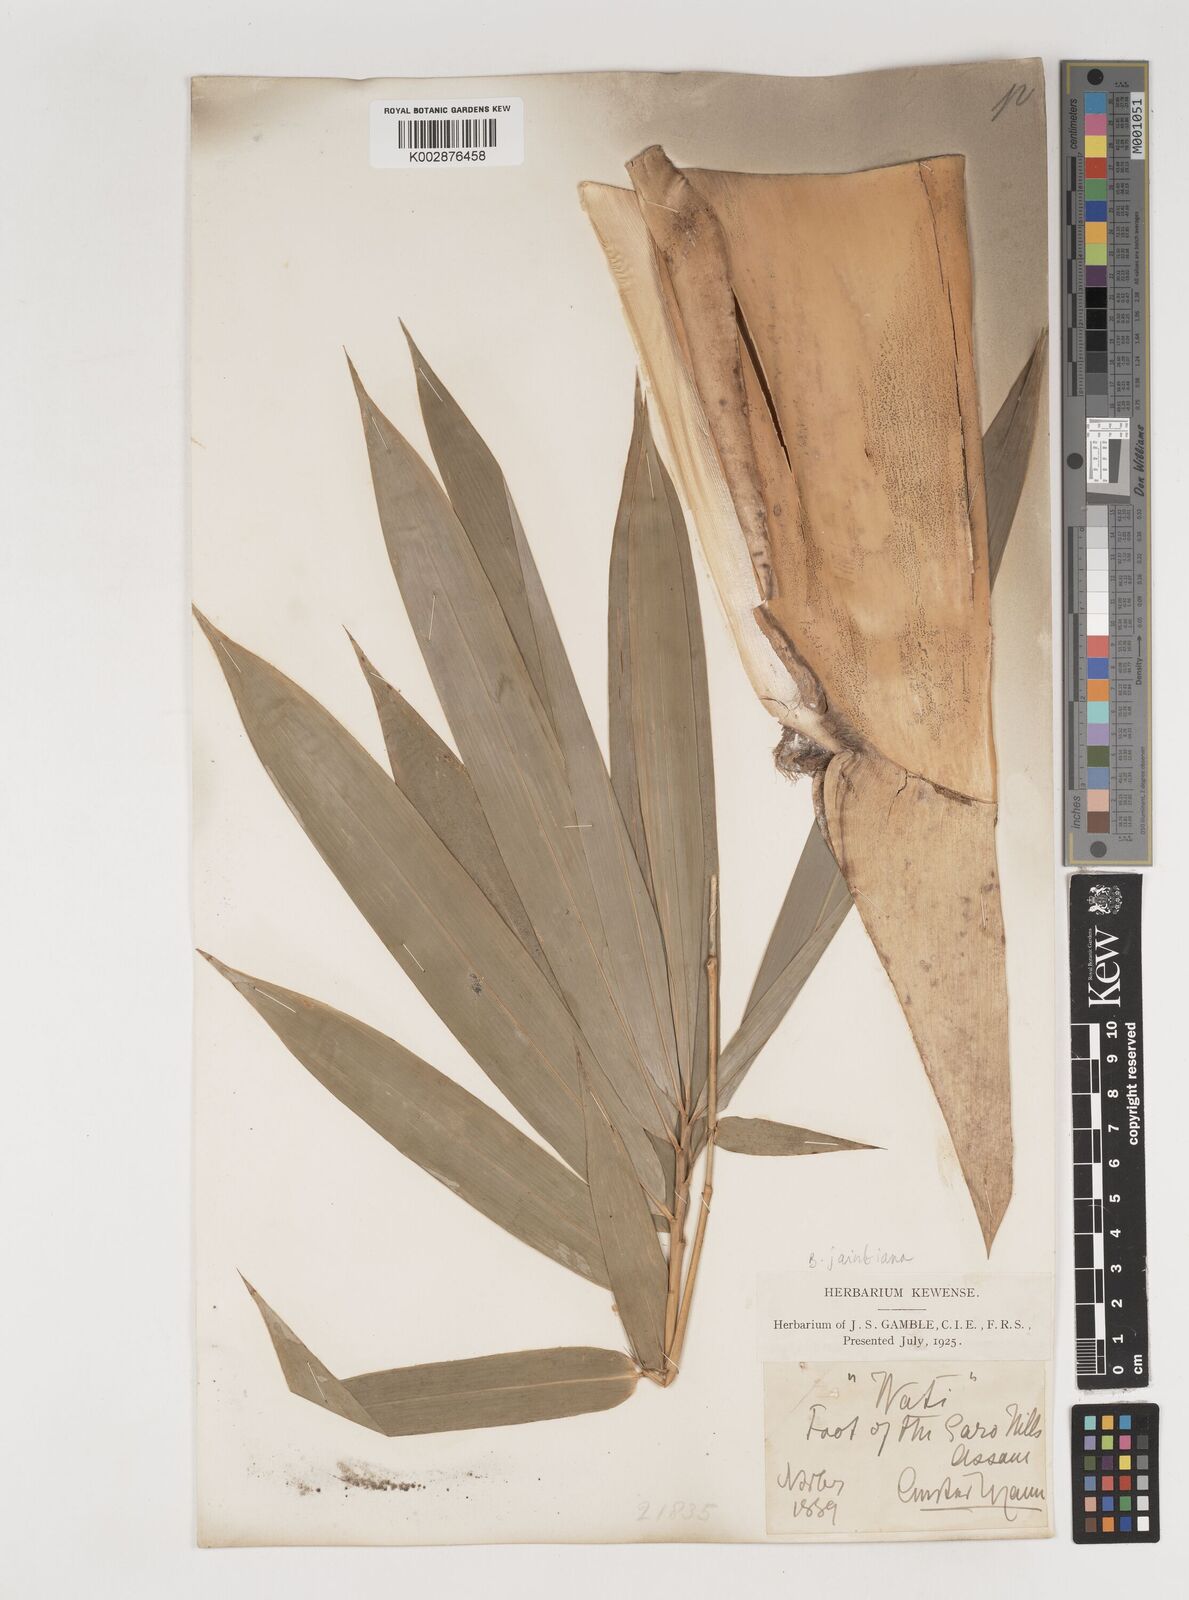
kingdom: Plantae
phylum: Tracheophyta
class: Liliopsida
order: Poales
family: Poaceae
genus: Bambusa
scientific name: Bambusa jaintiana
